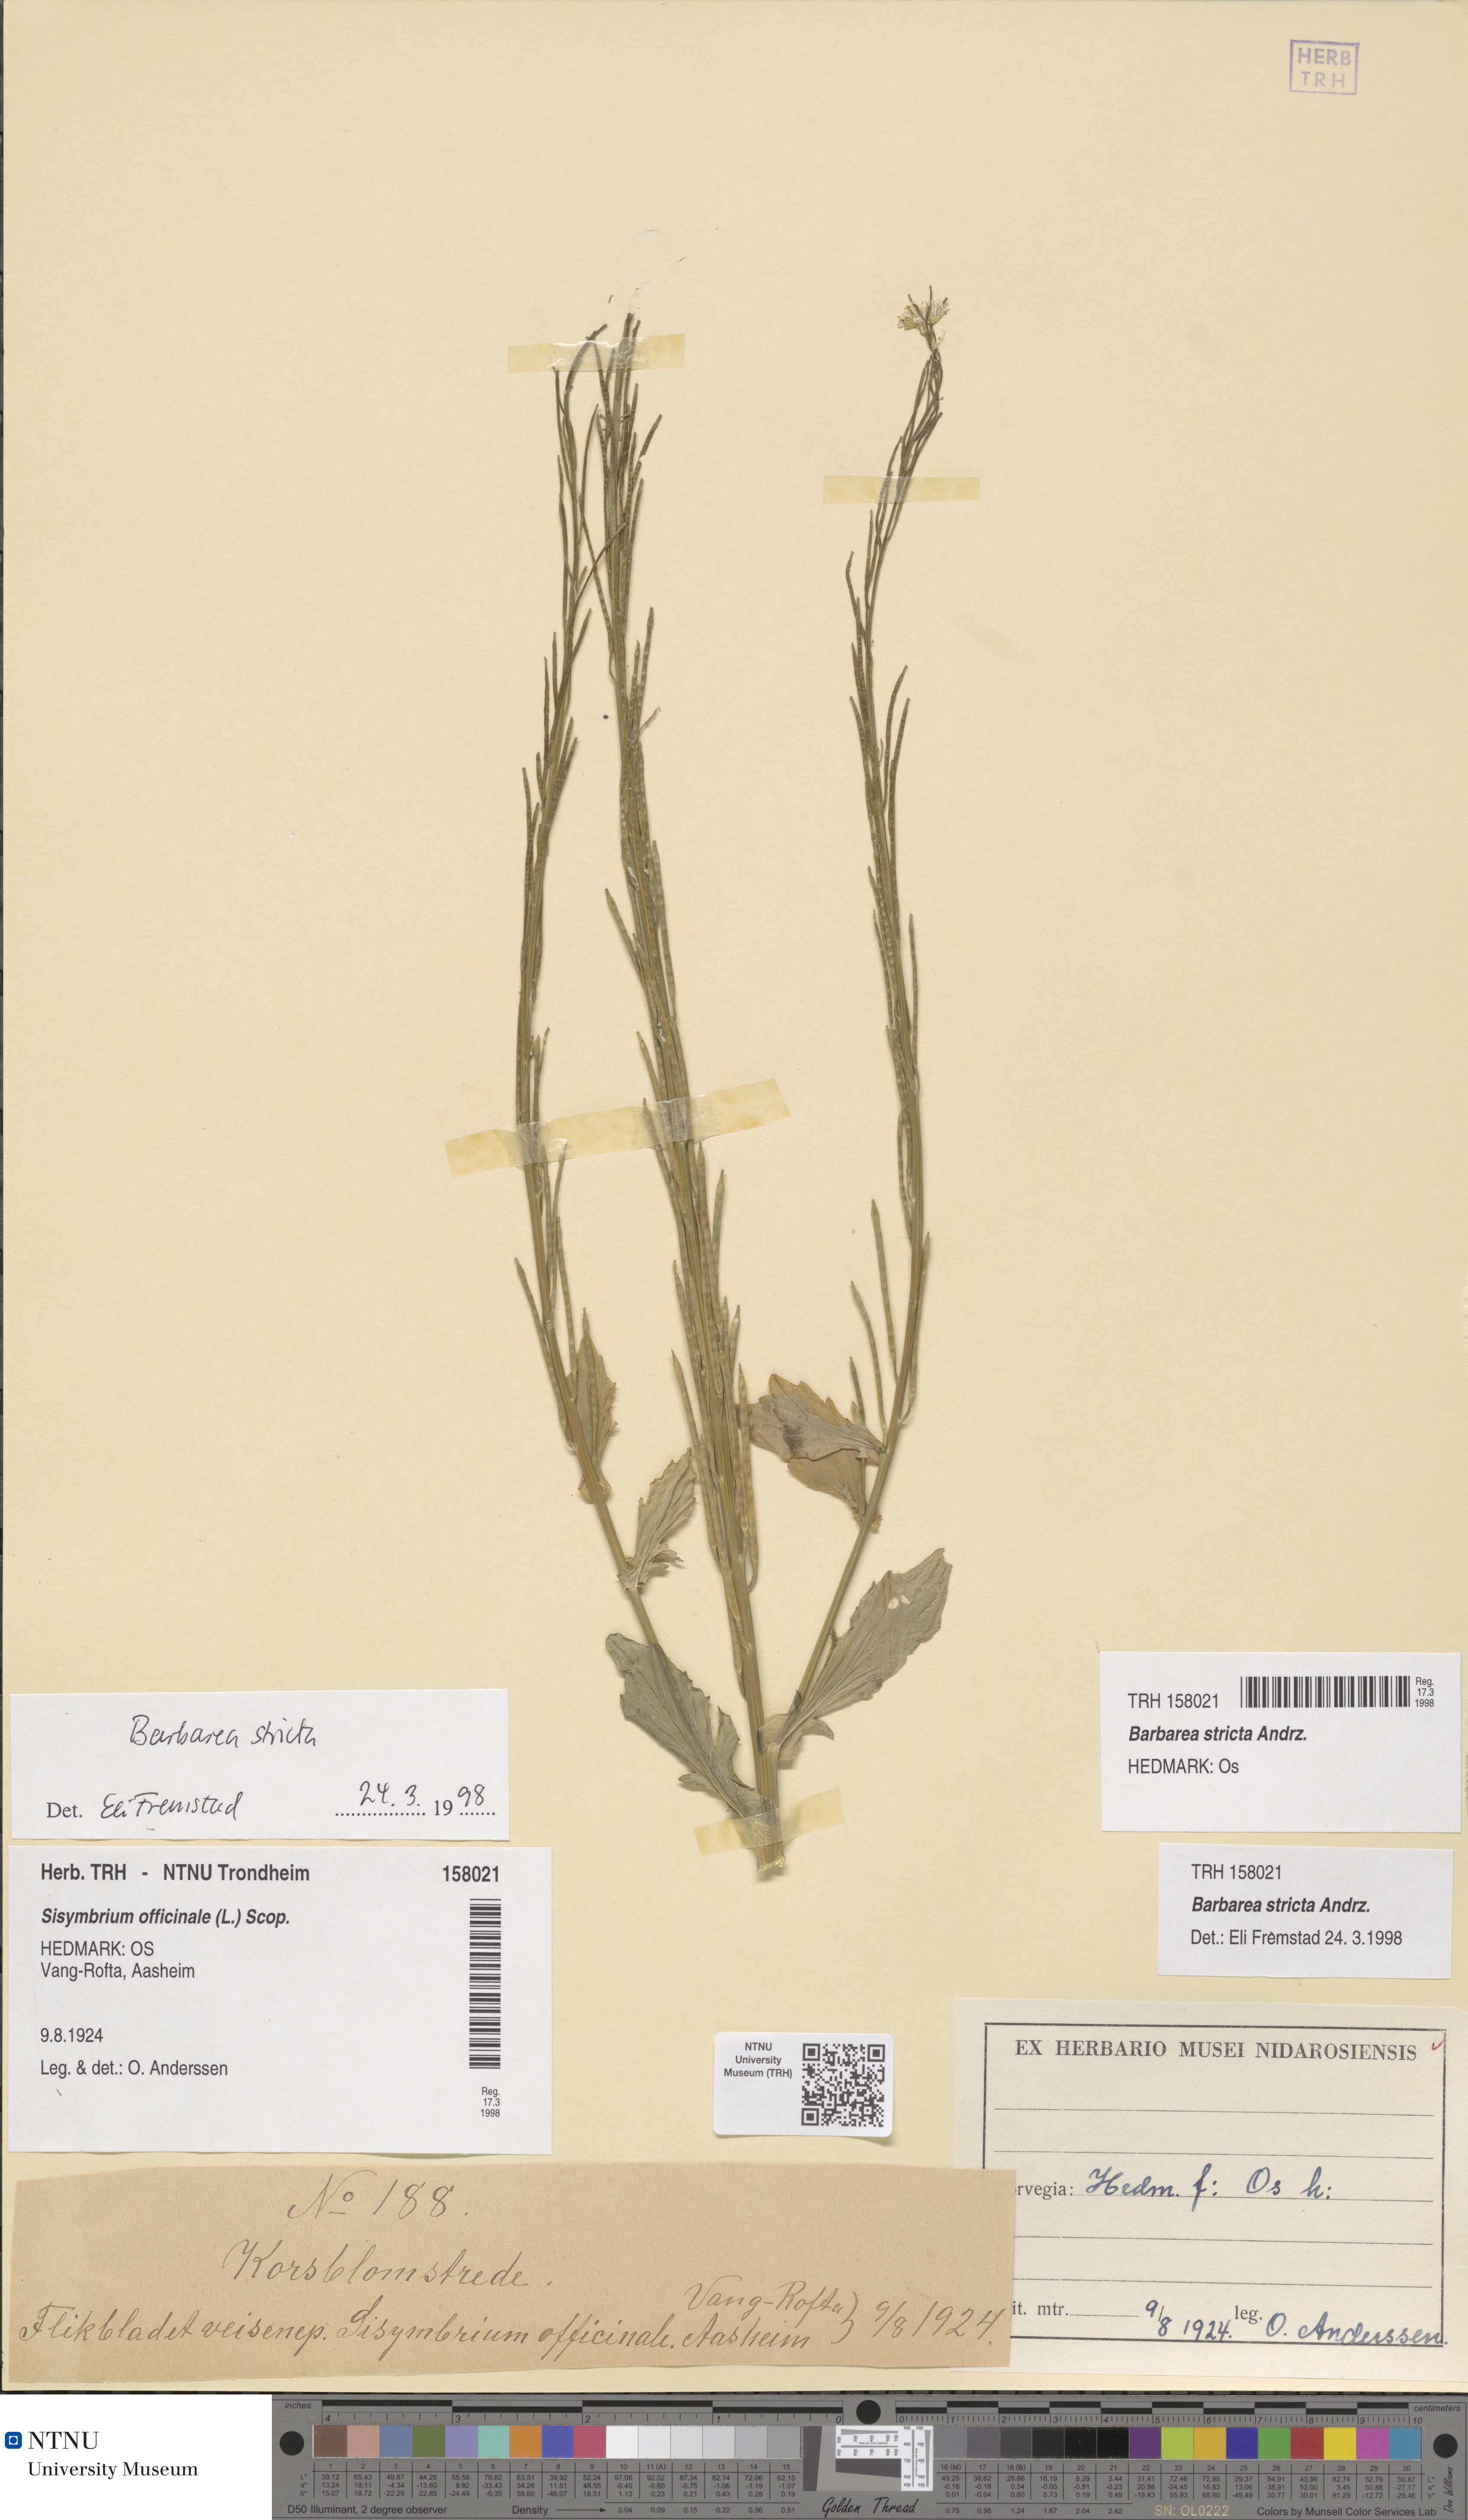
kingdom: Plantae
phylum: Tracheophyta
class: Magnoliopsida
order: Brassicales
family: Brassicaceae
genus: Barbarea
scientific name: Barbarea stricta
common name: Small-flowered winter-cress
